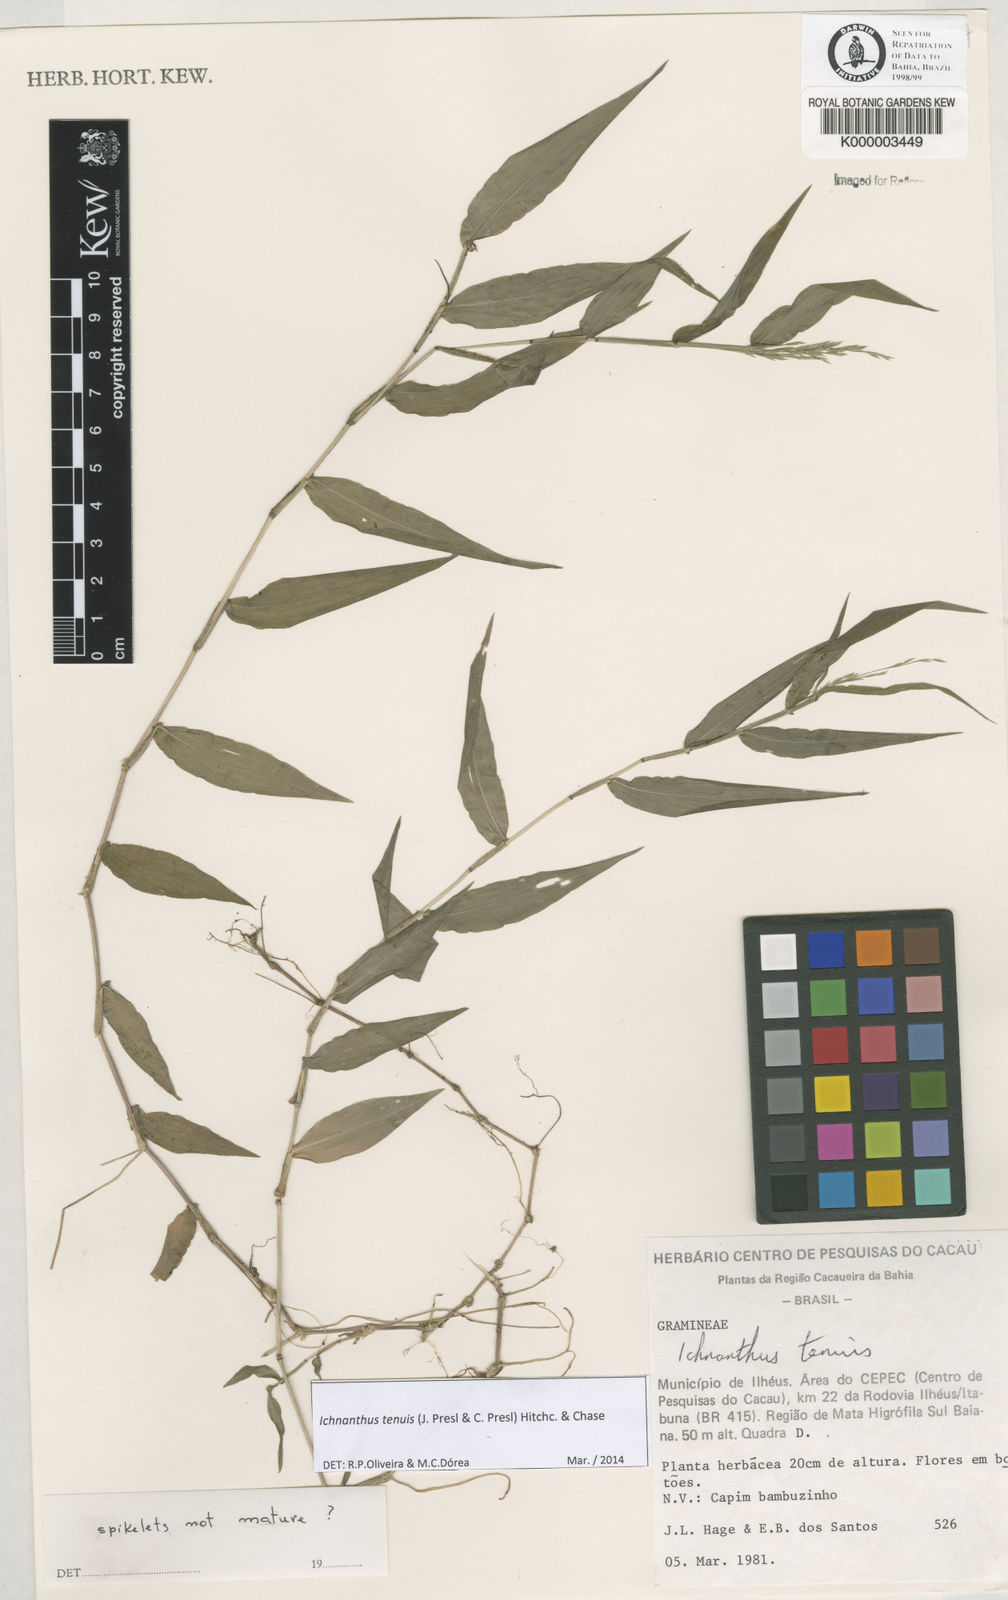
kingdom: Plantae
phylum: Tracheophyta
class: Liliopsida
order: Poales
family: Poaceae
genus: Ichnanthus
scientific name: Ichnanthus tenuis
